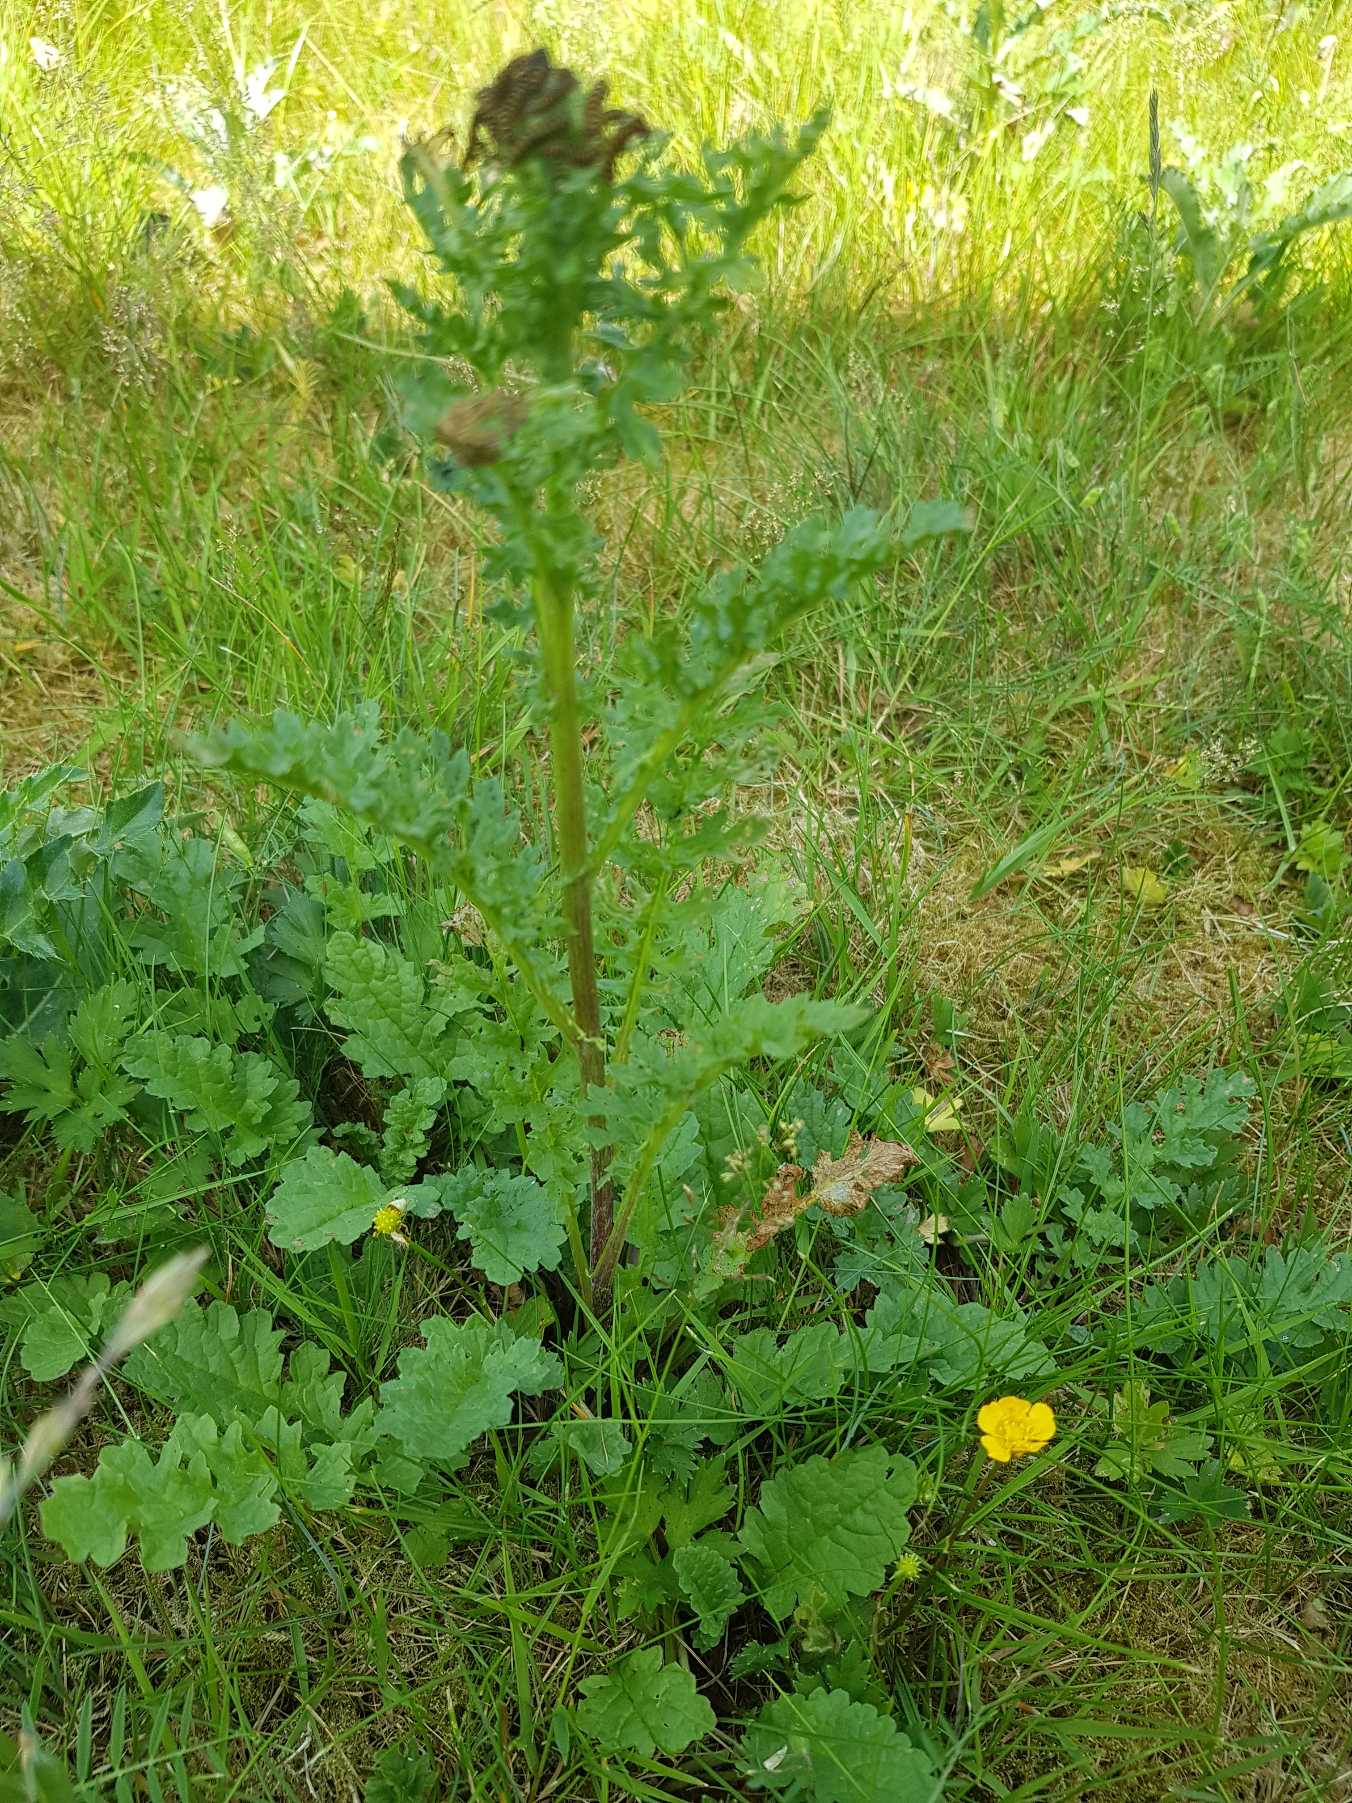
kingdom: Animalia
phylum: Arthropoda
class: Insecta
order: Lepidoptera
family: Erebidae
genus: Tyria
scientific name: Tyria jacobaeae
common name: Blodplet
